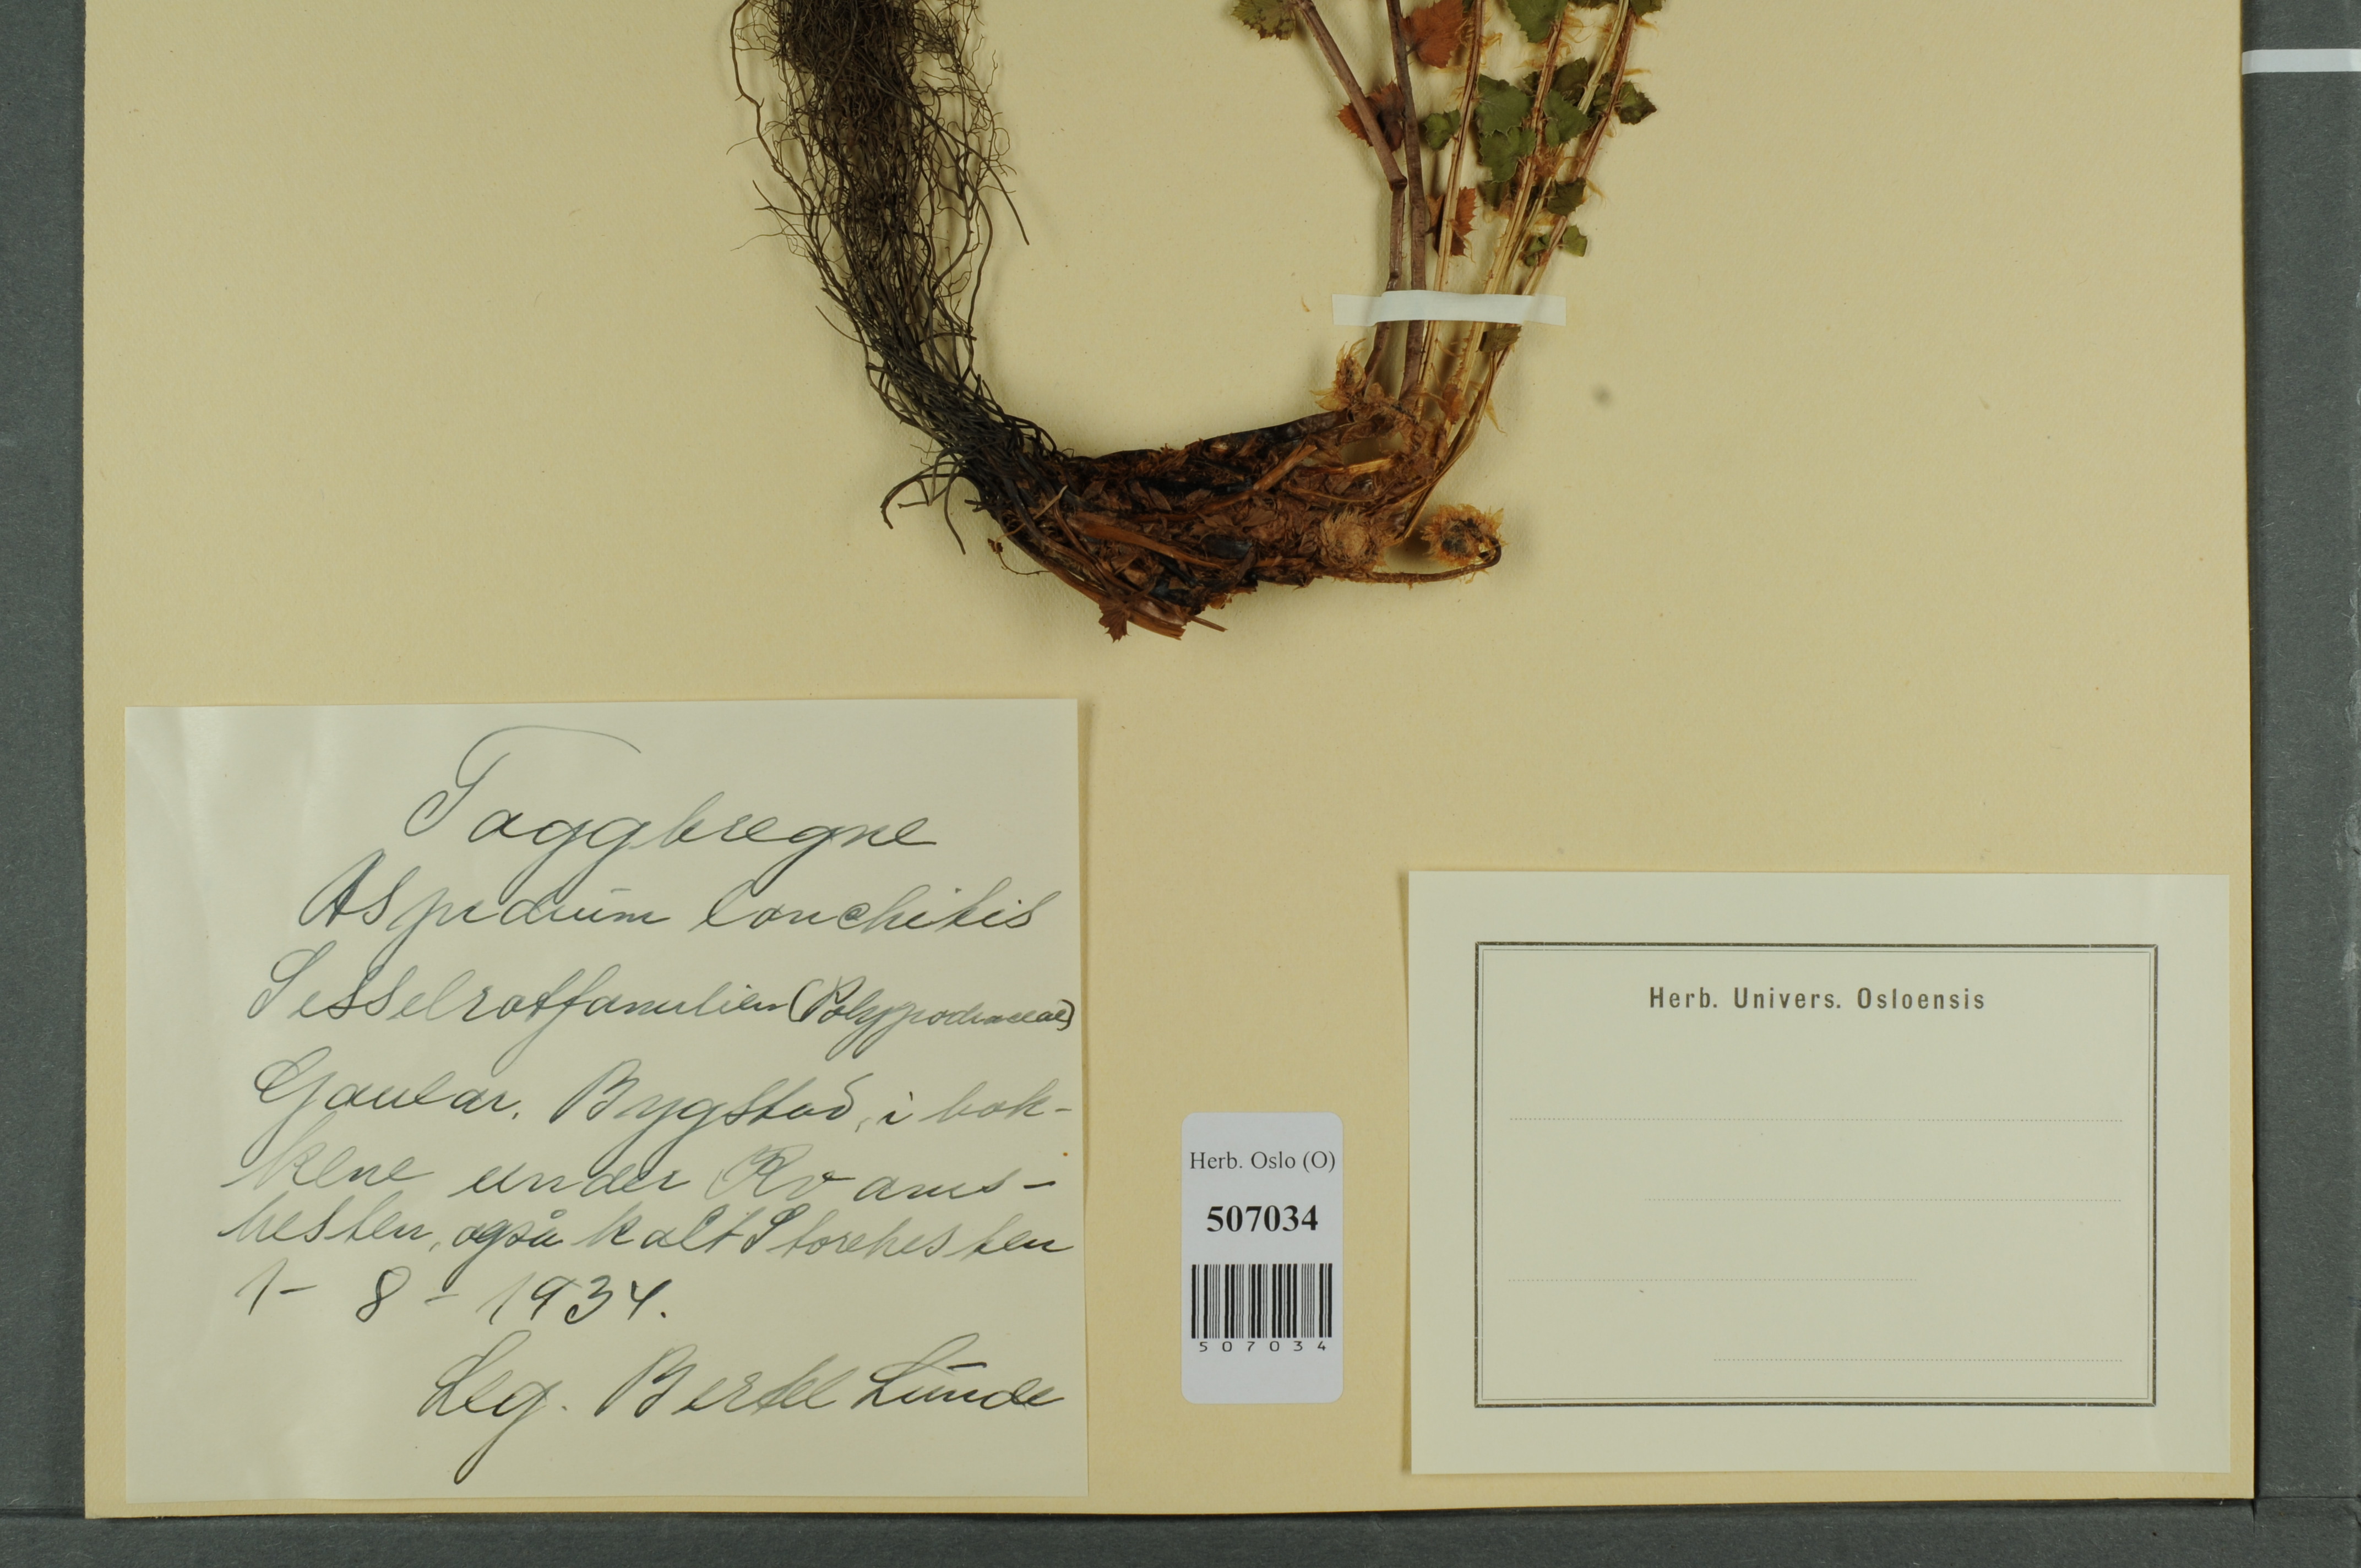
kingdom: Plantae
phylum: Tracheophyta
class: Polypodiopsida
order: Polypodiales
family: Dryopteridaceae
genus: Polystichum
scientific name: Polystichum lonchitis
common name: Holly fern
